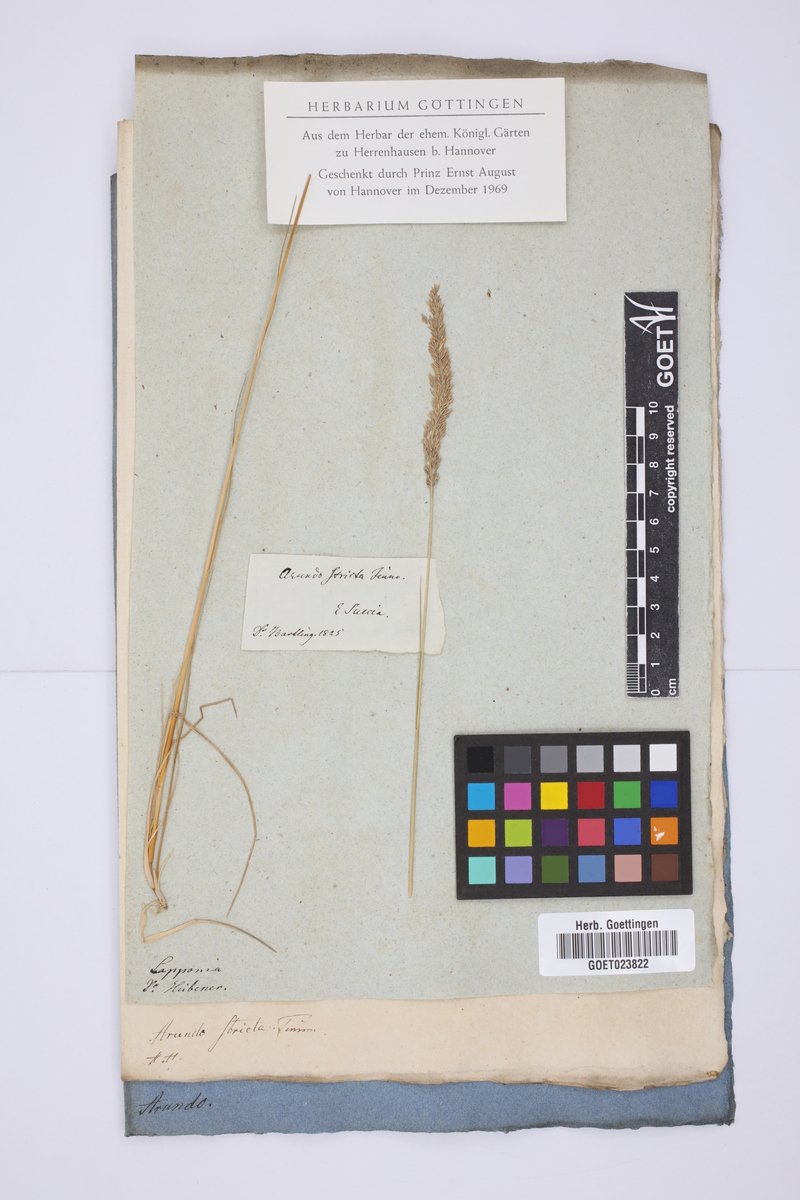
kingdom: Plantae
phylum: Tracheophyta
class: Liliopsida
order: Poales
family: Poaceae
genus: Calamagrostis
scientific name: Calamagrostis stricta
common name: Narrow small-reed
